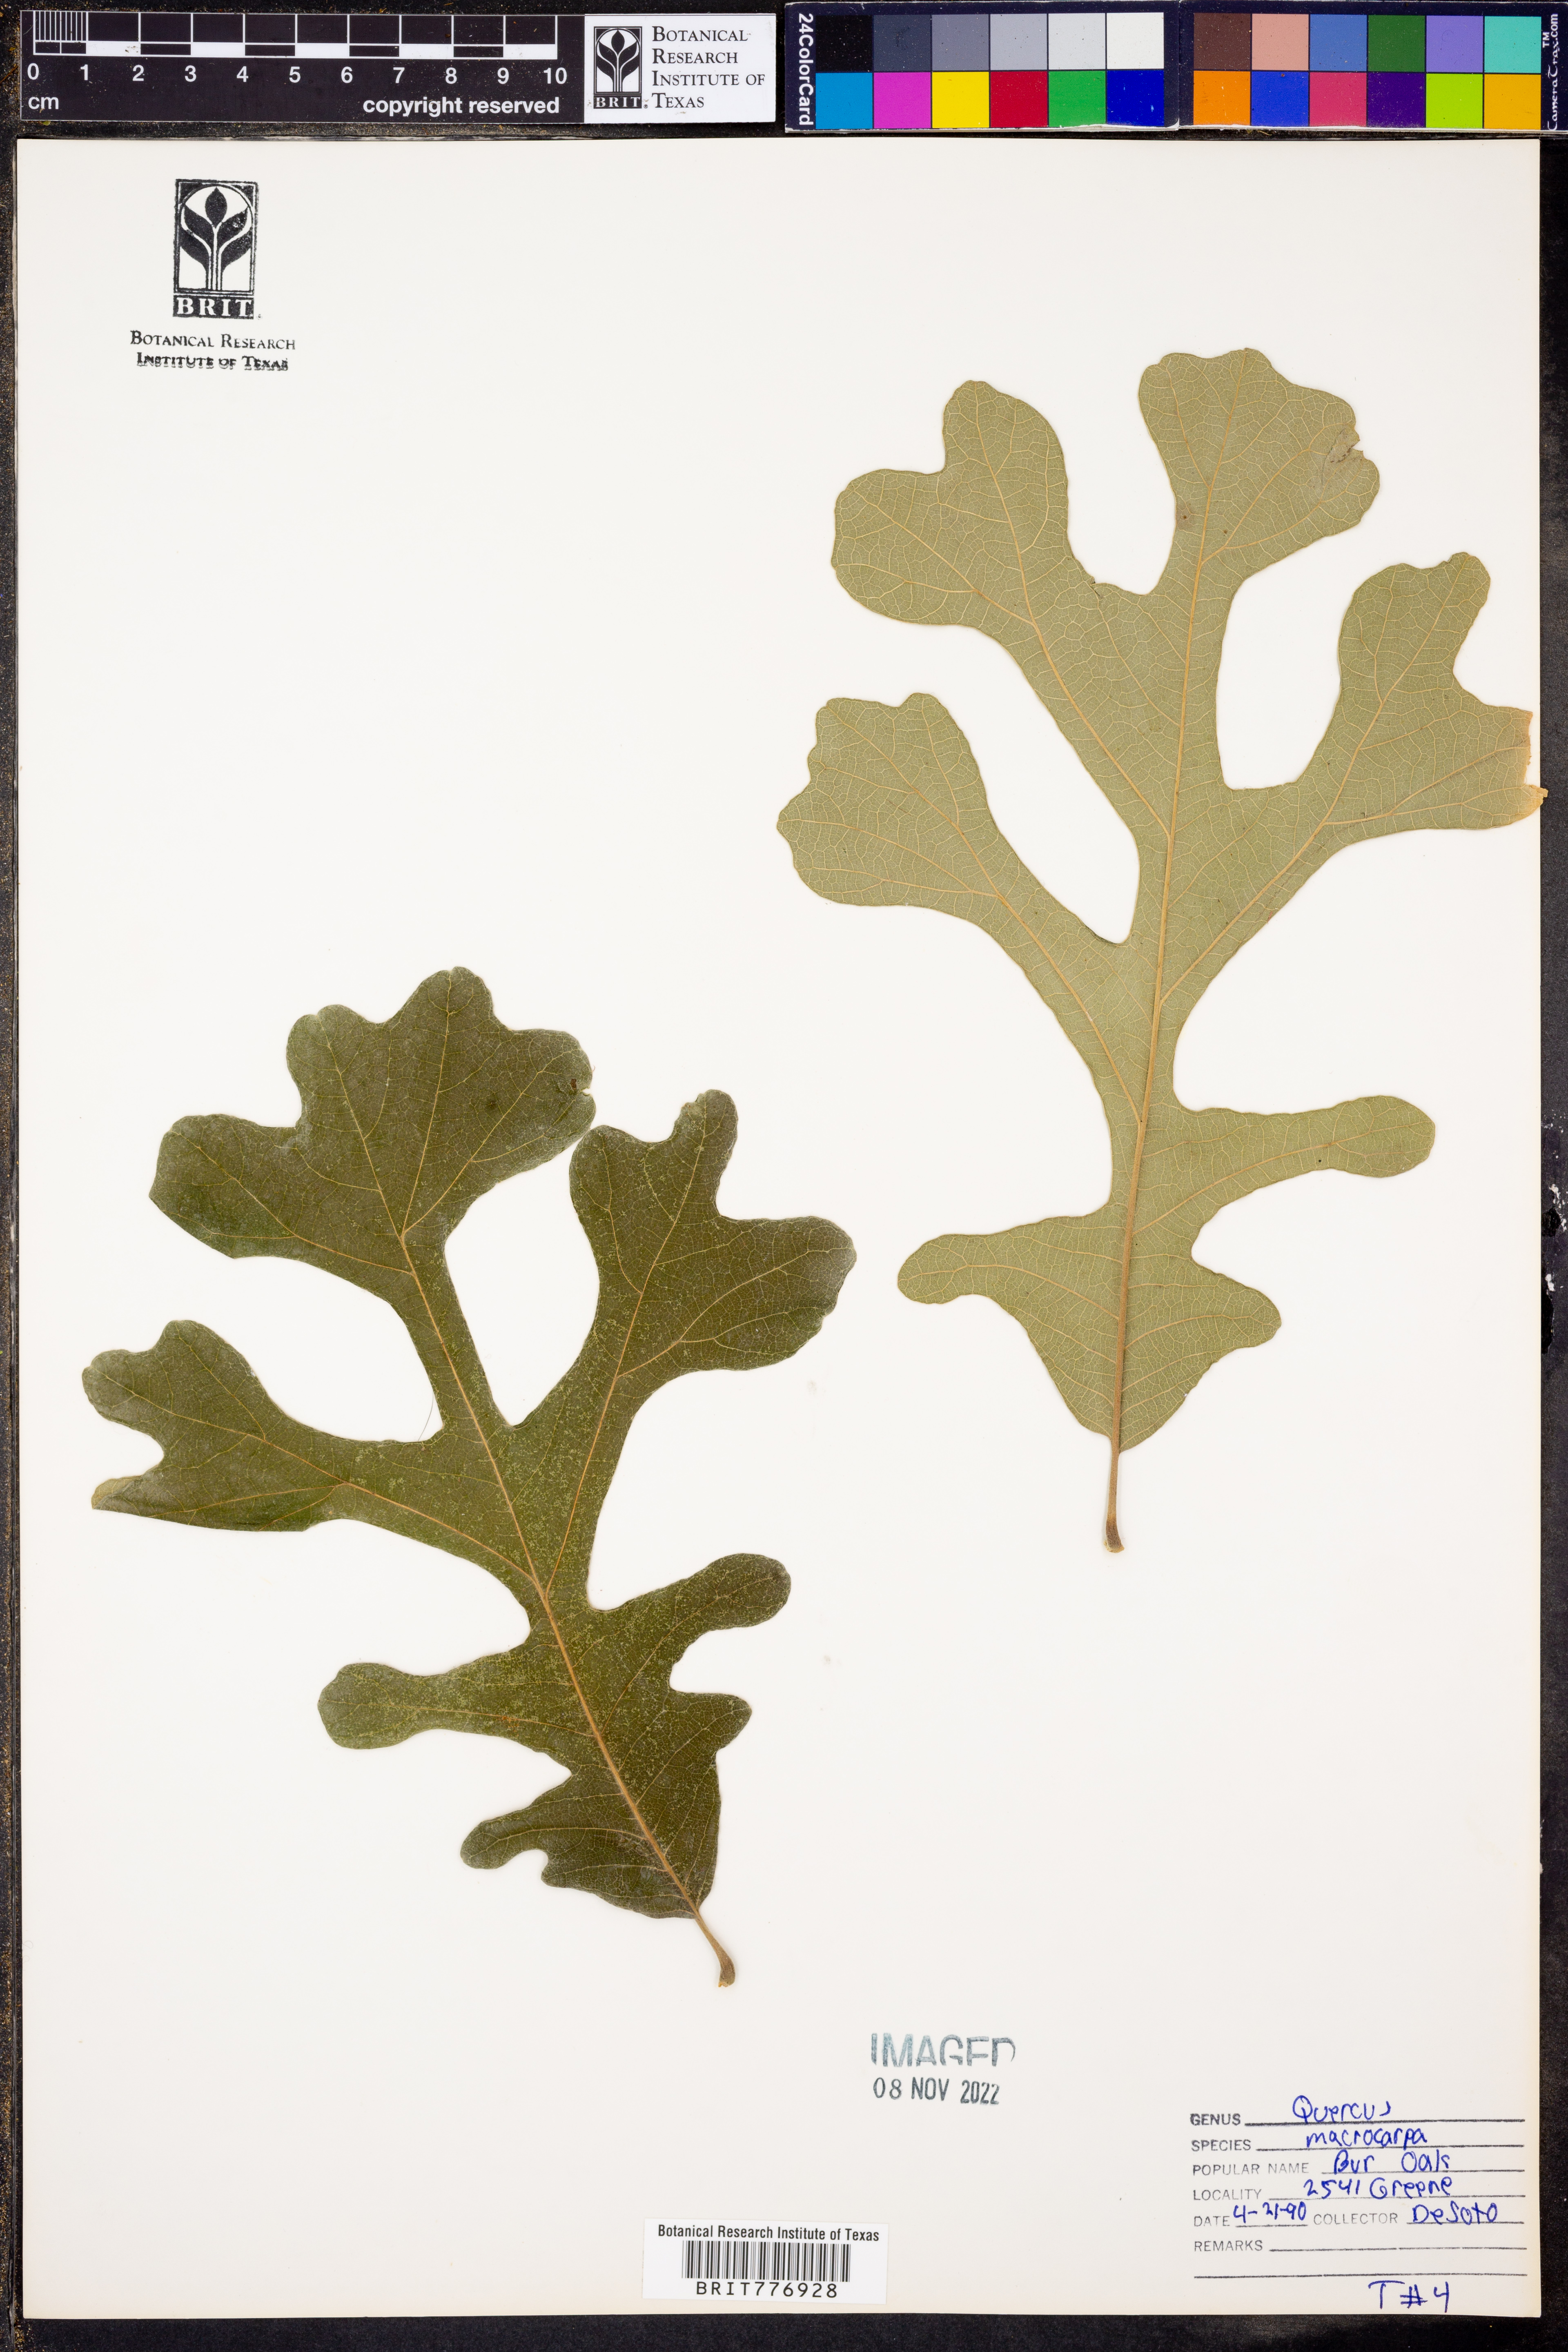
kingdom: Plantae
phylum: Tracheophyta
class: Magnoliopsida
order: Fagales
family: Fagaceae
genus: Quercus
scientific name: Quercus macrocarpa
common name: Bur oak
